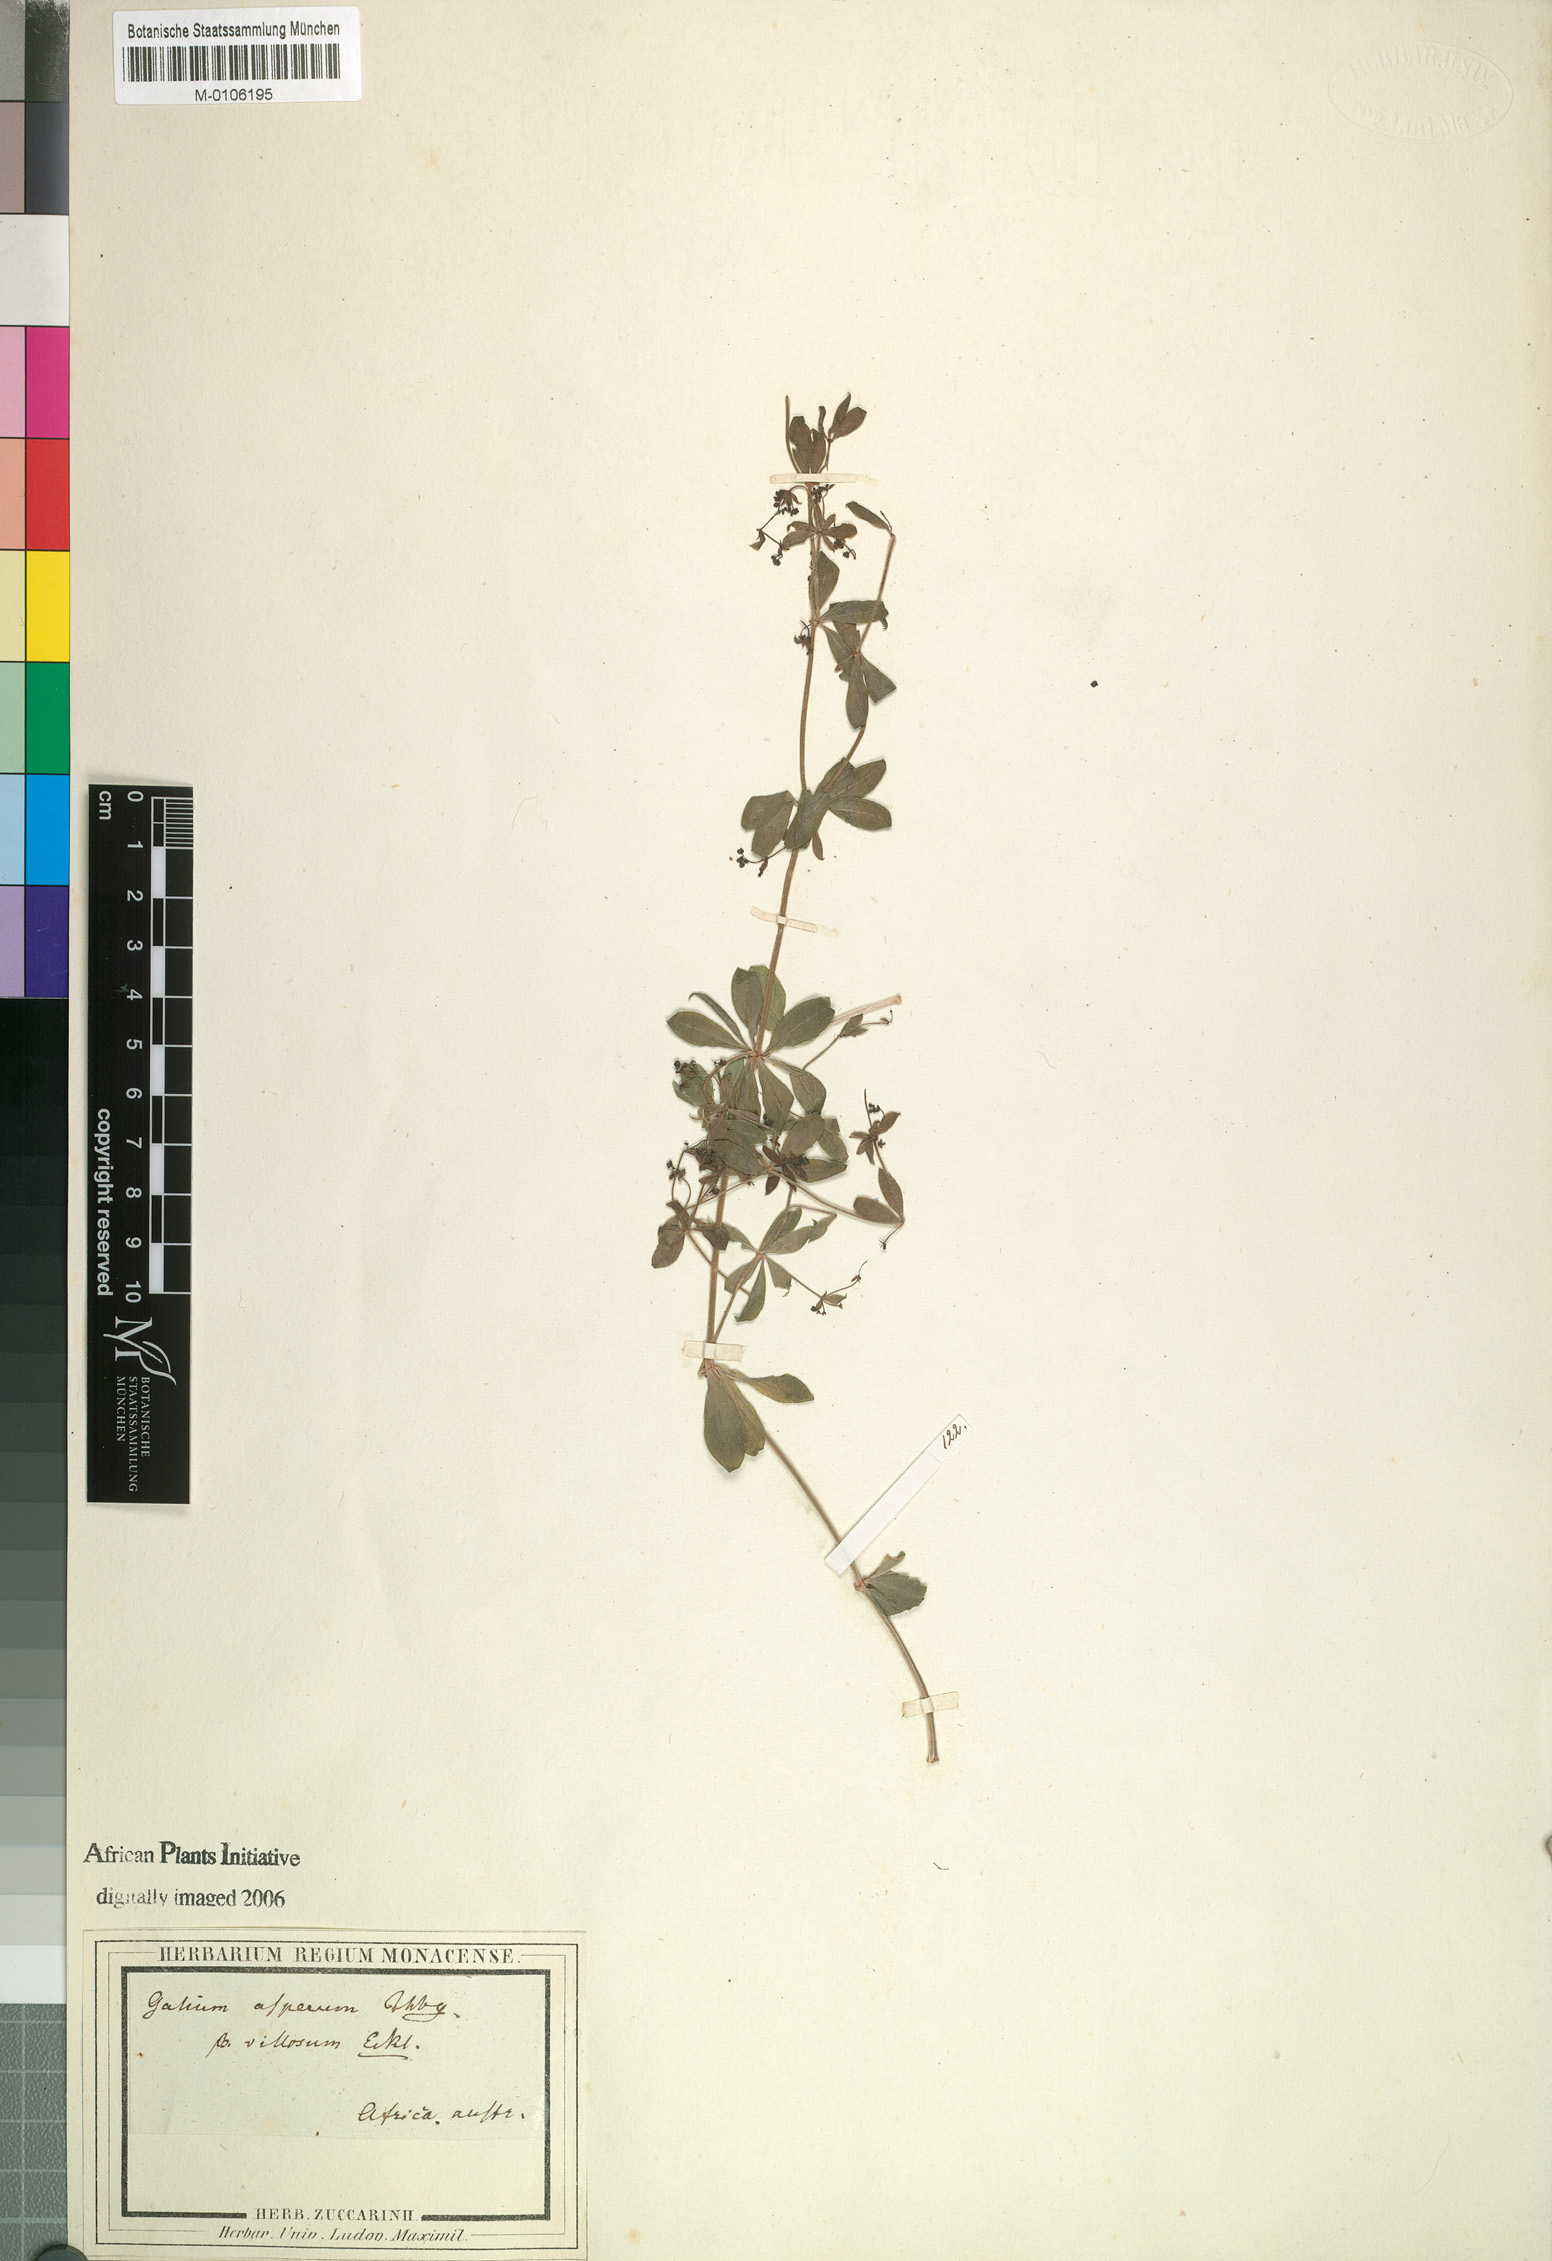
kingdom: Plantae
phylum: Tracheophyta
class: Magnoliopsida
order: Gentianales
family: Rubiaceae
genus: Galium
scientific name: Galium tomentosum
